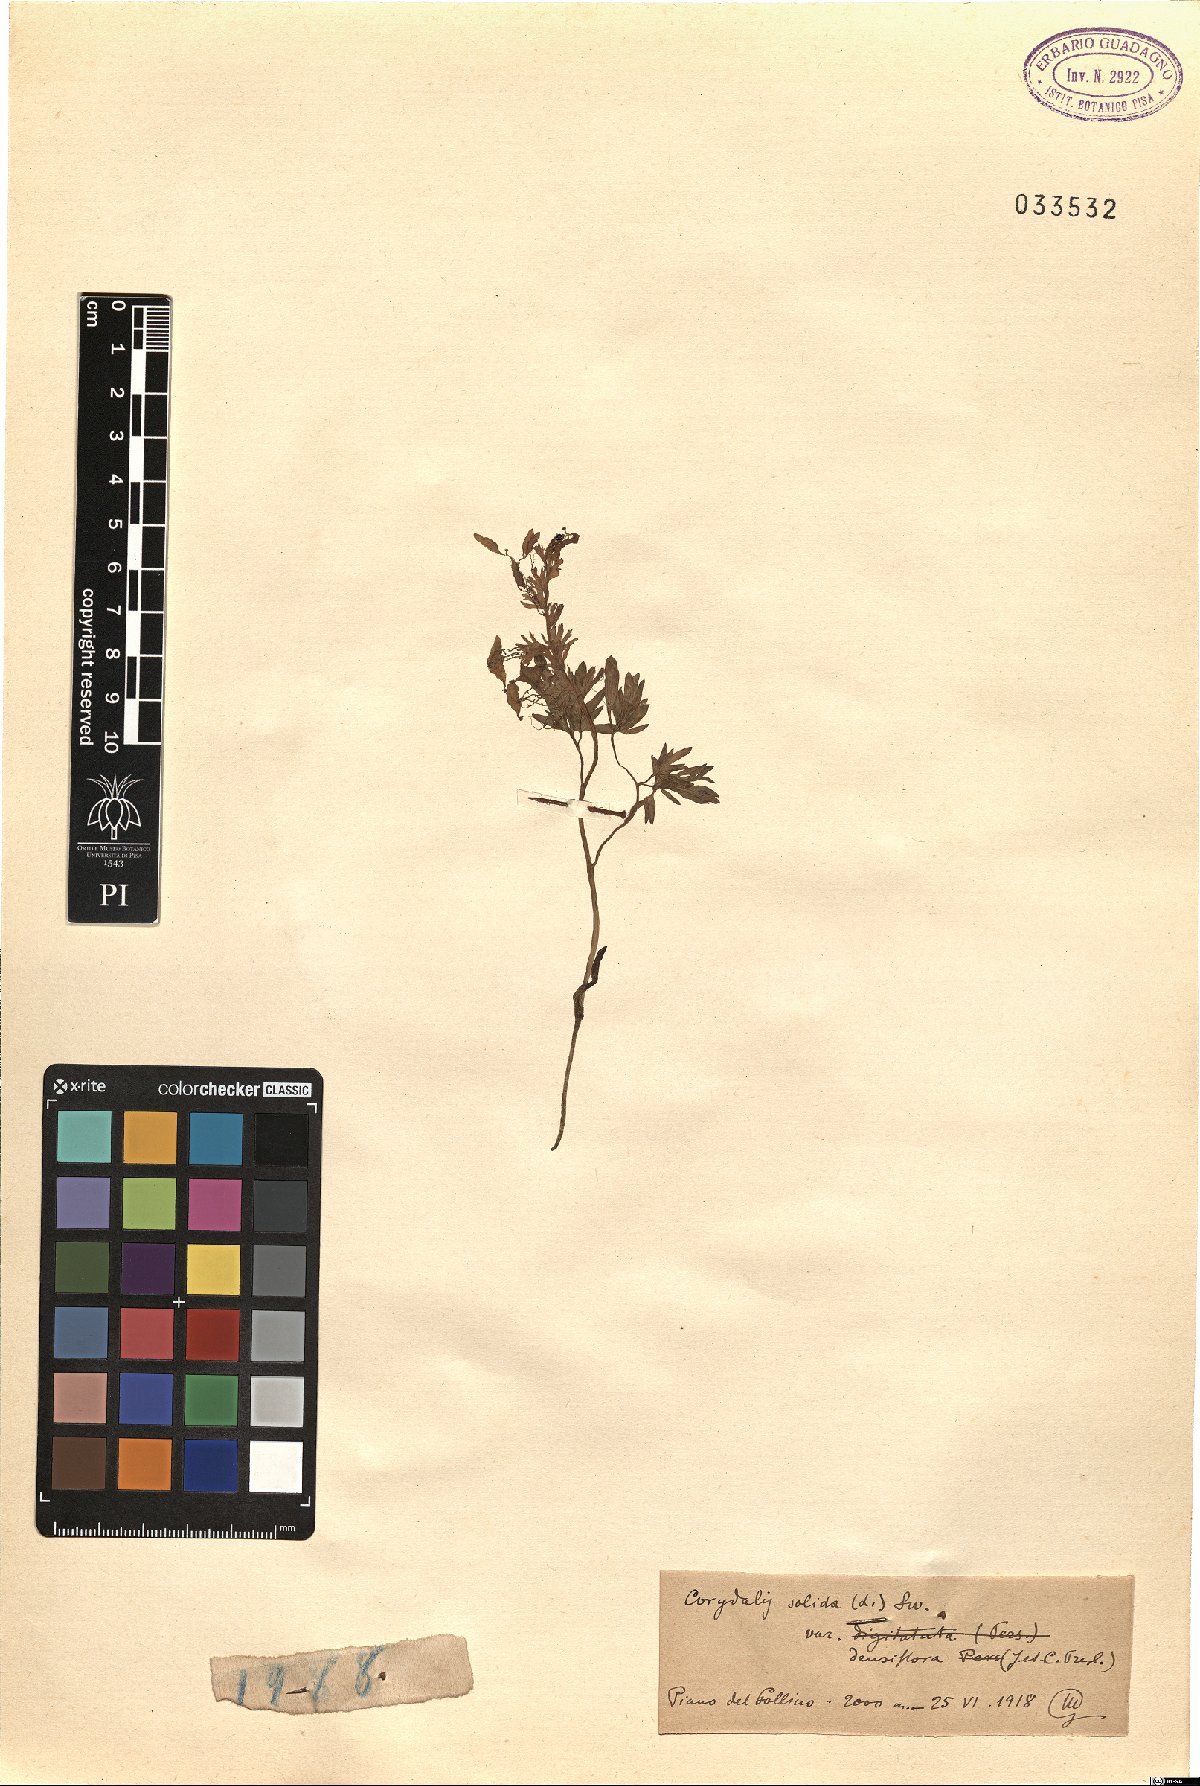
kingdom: Plantae
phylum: Tracheophyta
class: Magnoliopsida
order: Ranunculales
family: Papaveraceae
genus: Corydalis
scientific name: Corydalis densiflora
